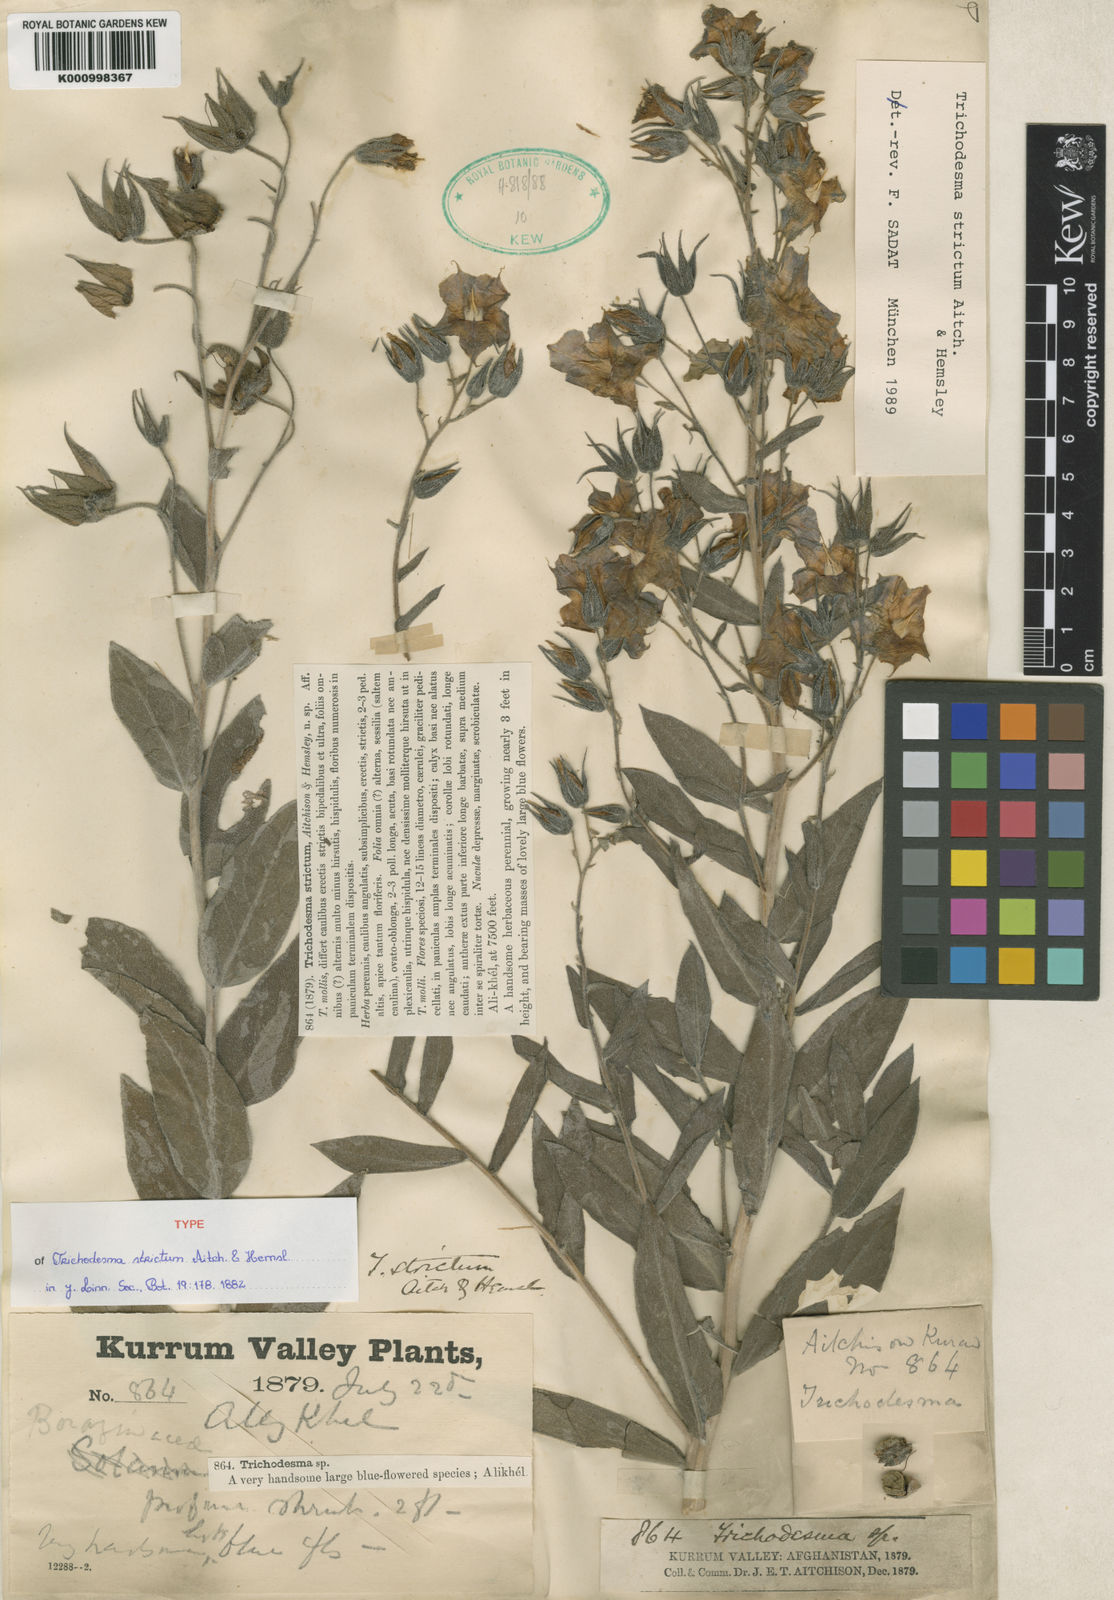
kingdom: Plantae
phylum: Tracheophyta
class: Magnoliopsida
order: Boraginales
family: Boraginaceae
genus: Trichodesma
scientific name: Trichodesma incanum
